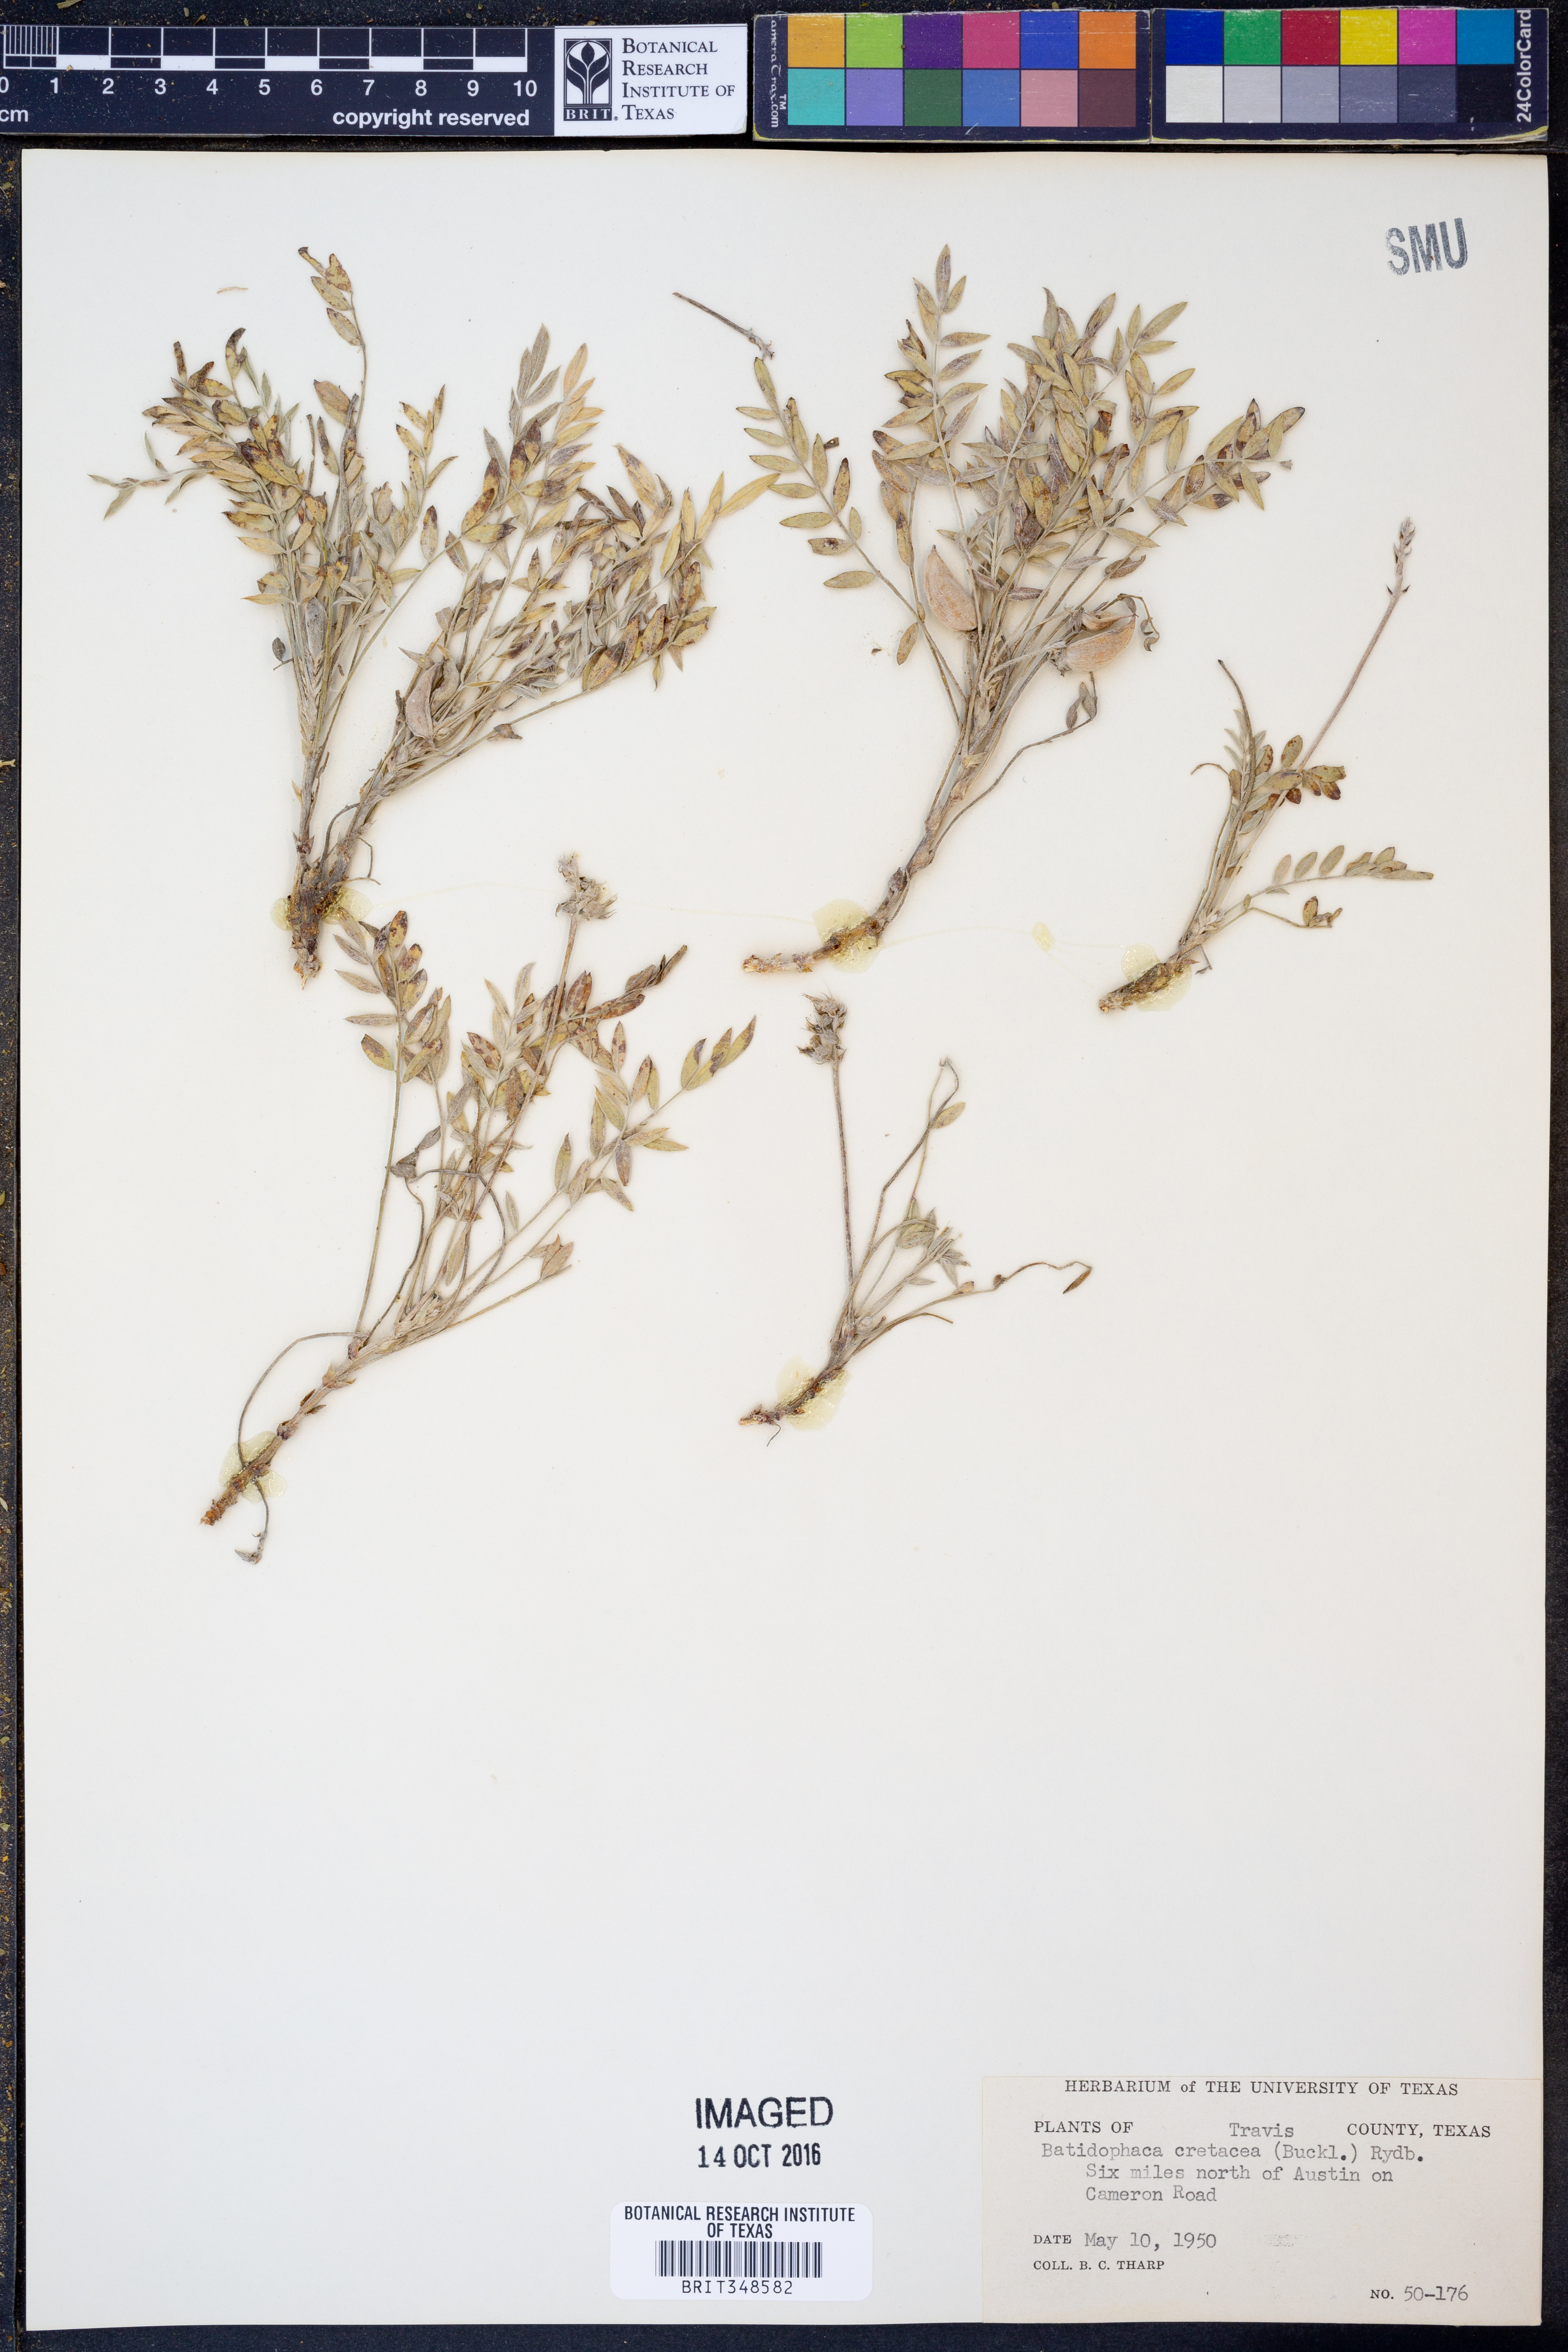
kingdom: Plantae
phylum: Tracheophyta
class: Magnoliopsida
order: Fabales
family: Fabaceae
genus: Astragalus
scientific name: Astragalus lotiflorus
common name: Lotus milk-vetch
